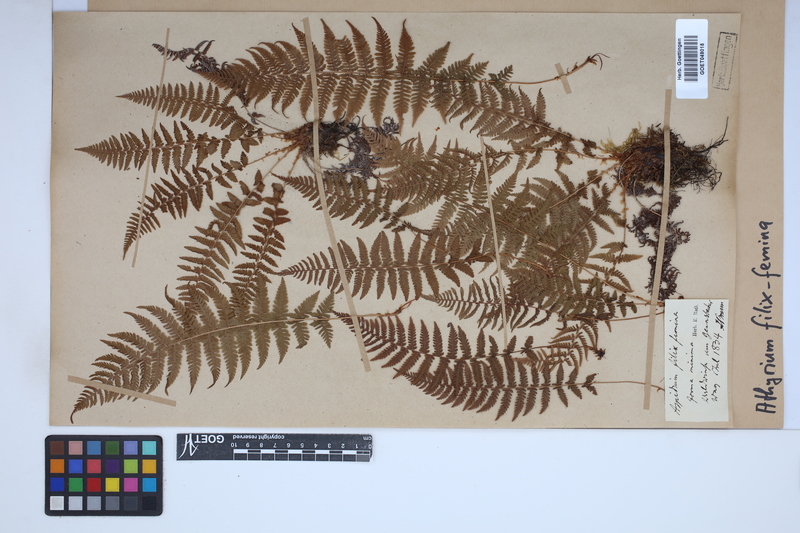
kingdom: Plantae
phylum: Tracheophyta
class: Polypodiopsida
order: Polypodiales
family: Athyriaceae
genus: Athyrium
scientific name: Athyrium filix-femina
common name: Lady fern
